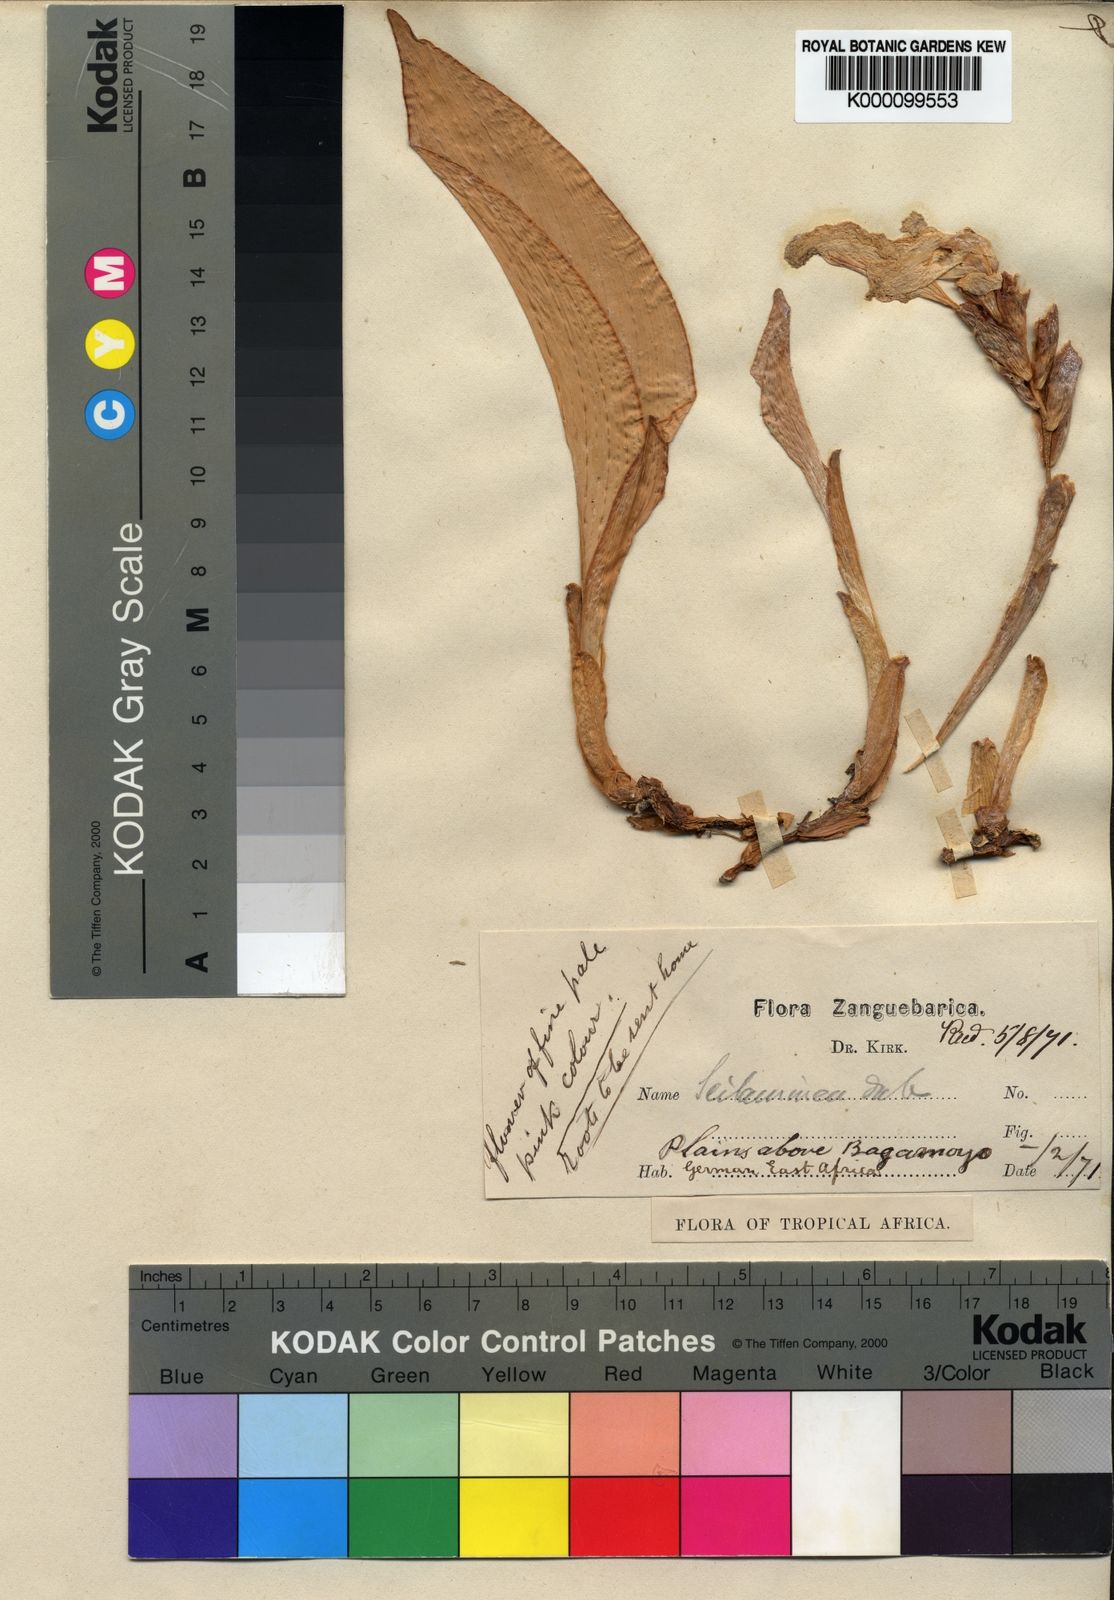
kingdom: Plantae
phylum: Tracheophyta
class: Liliopsida
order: Zingiberales
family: Zingiberaceae
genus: Siphonochilus
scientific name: Siphonochilus kirkii
